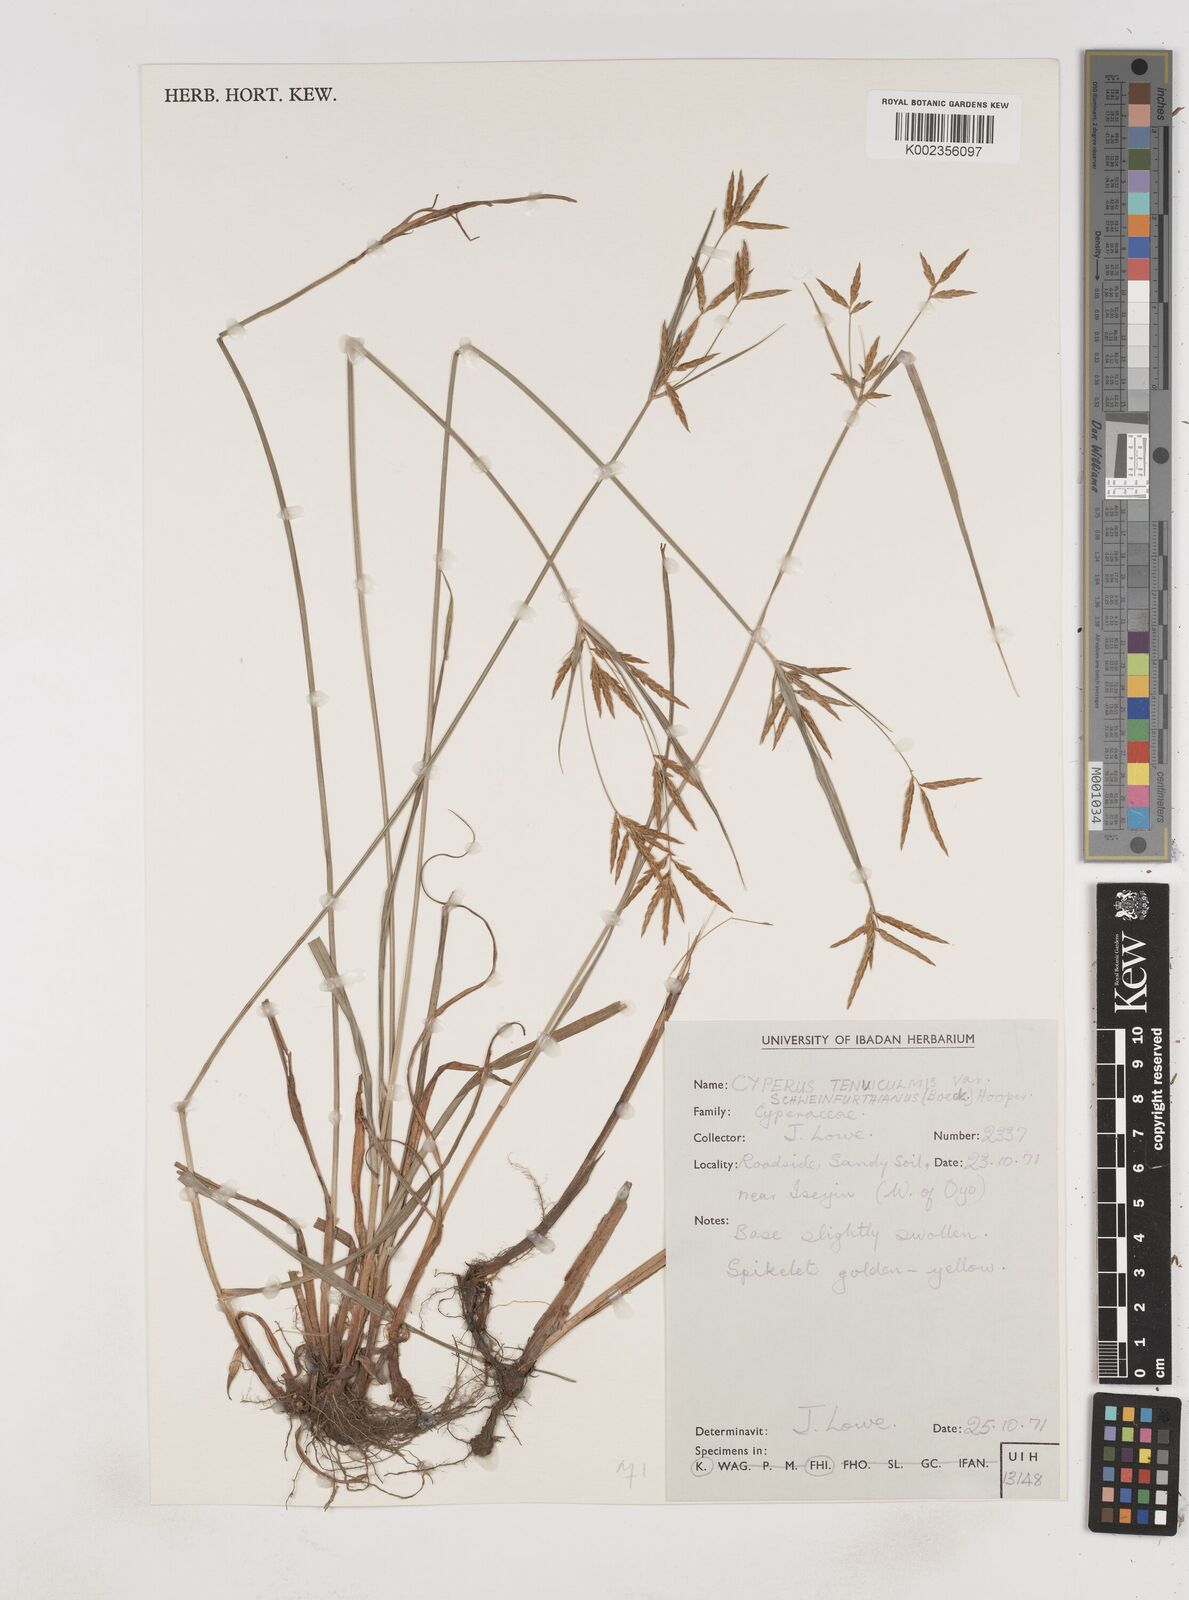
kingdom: Plantae
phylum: Tracheophyta
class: Liliopsida
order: Poales
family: Cyperaceae
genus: Cyperus
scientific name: Cyperus tenuiculmis
